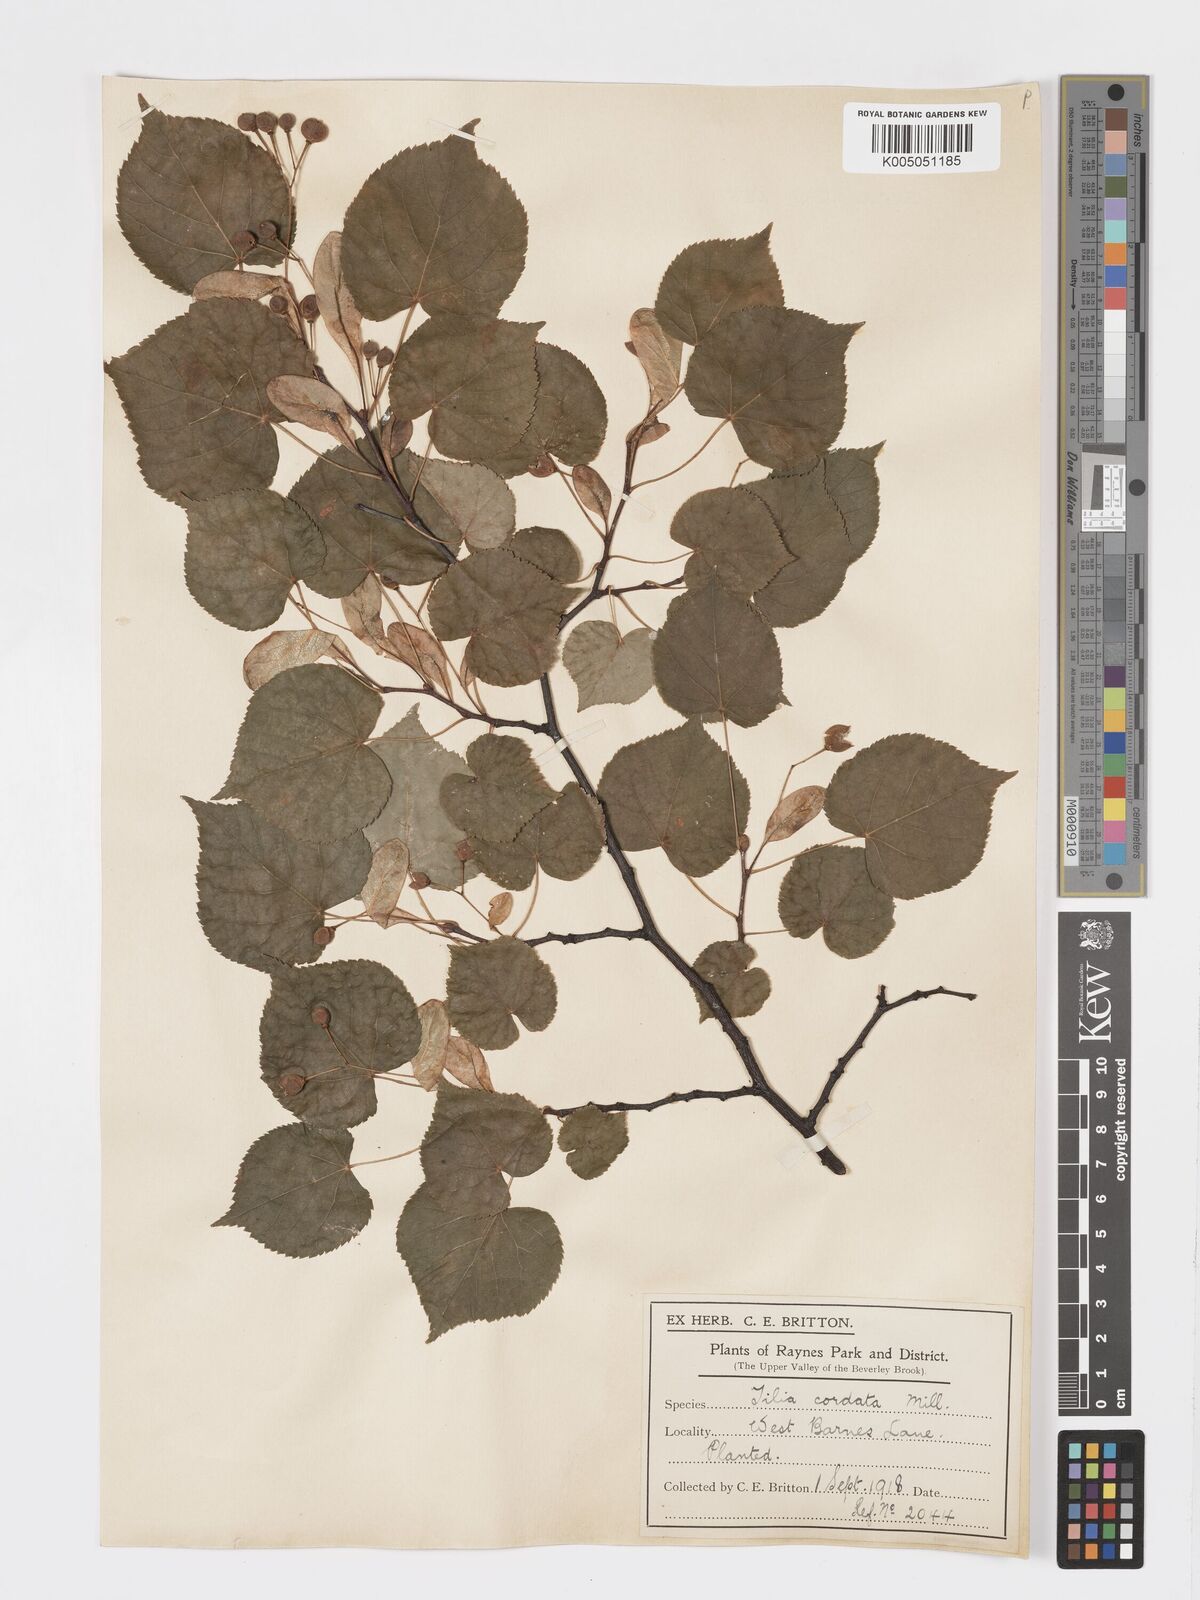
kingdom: Plantae
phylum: Tracheophyta
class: Magnoliopsida
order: Malvales
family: Malvaceae
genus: Tilia
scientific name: Tilia cordata
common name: Small-leaved lime
